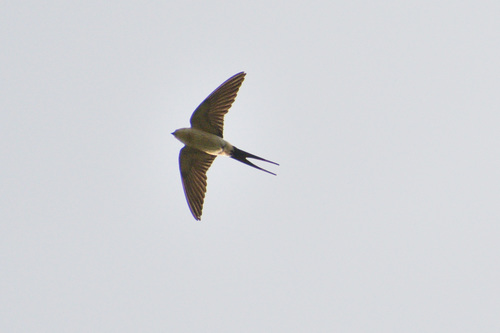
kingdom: Animalia
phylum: Chordata
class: Aves
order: Passeriformes
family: Hirundinidae
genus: Cecropis
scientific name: Cecropis daurica
